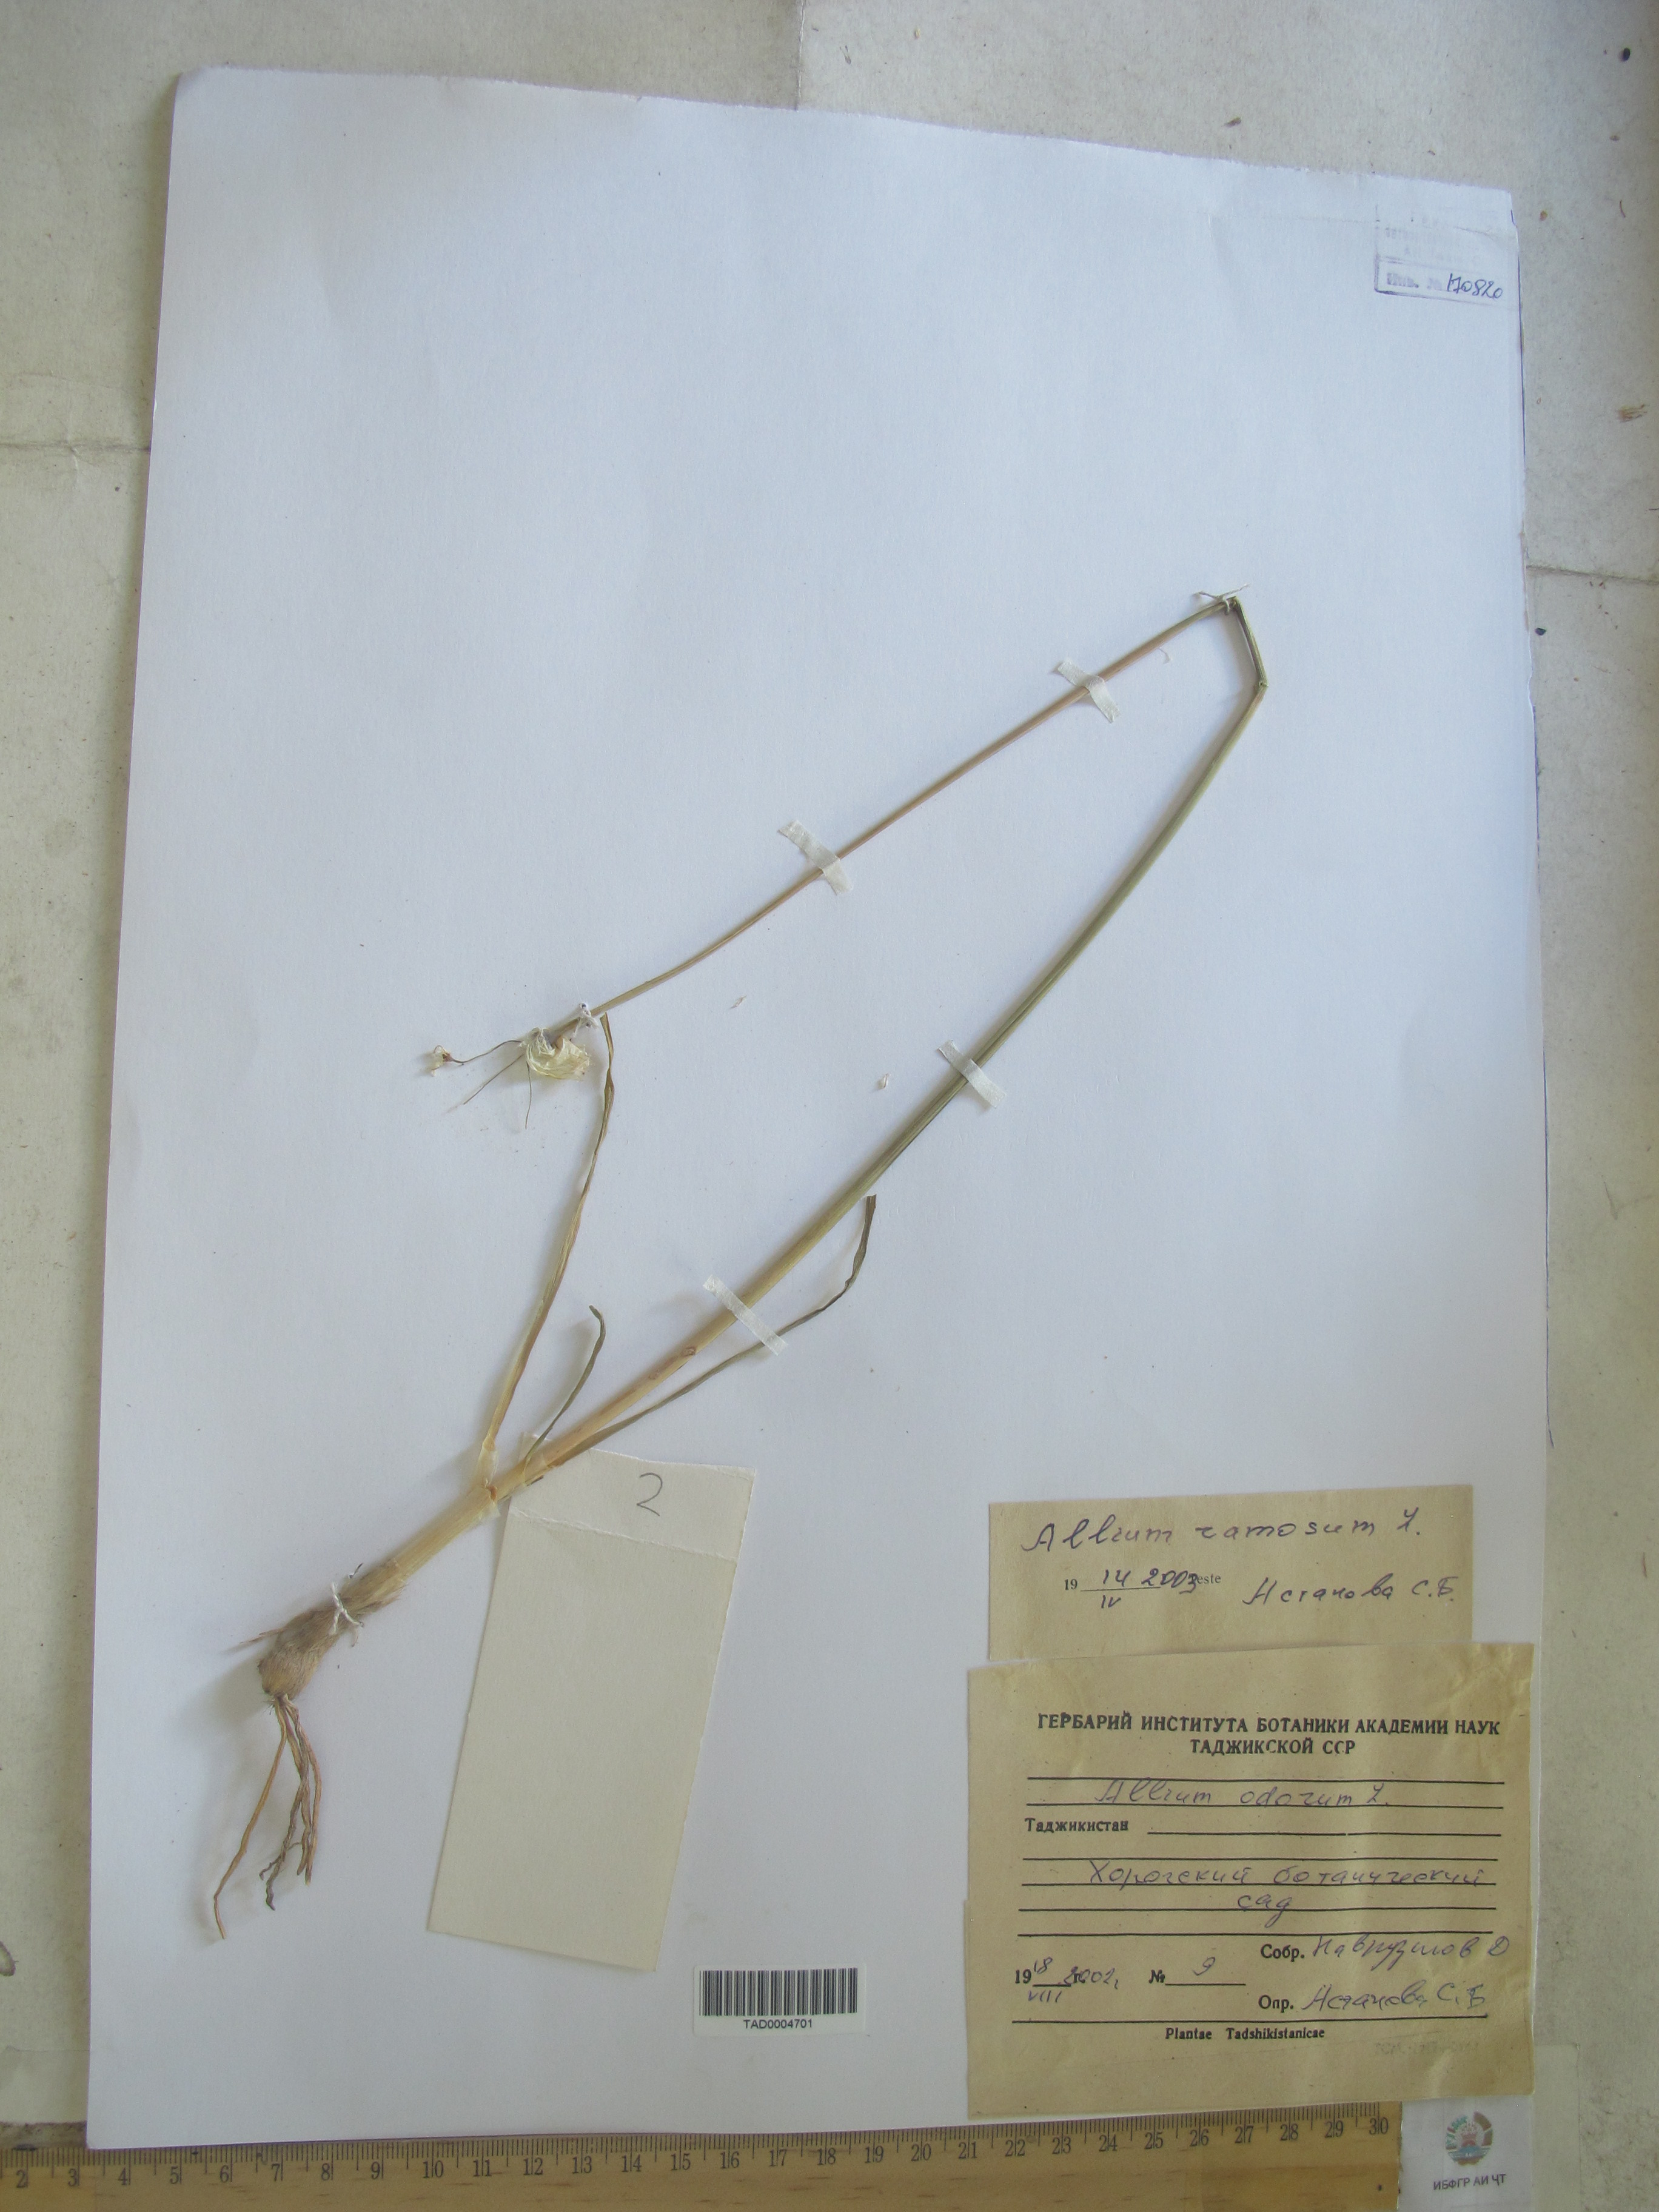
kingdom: Plantae
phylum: Tracheophyta
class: Liliopsida
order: Asparagales
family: Amaryllidaceae
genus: Allium
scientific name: Allium
